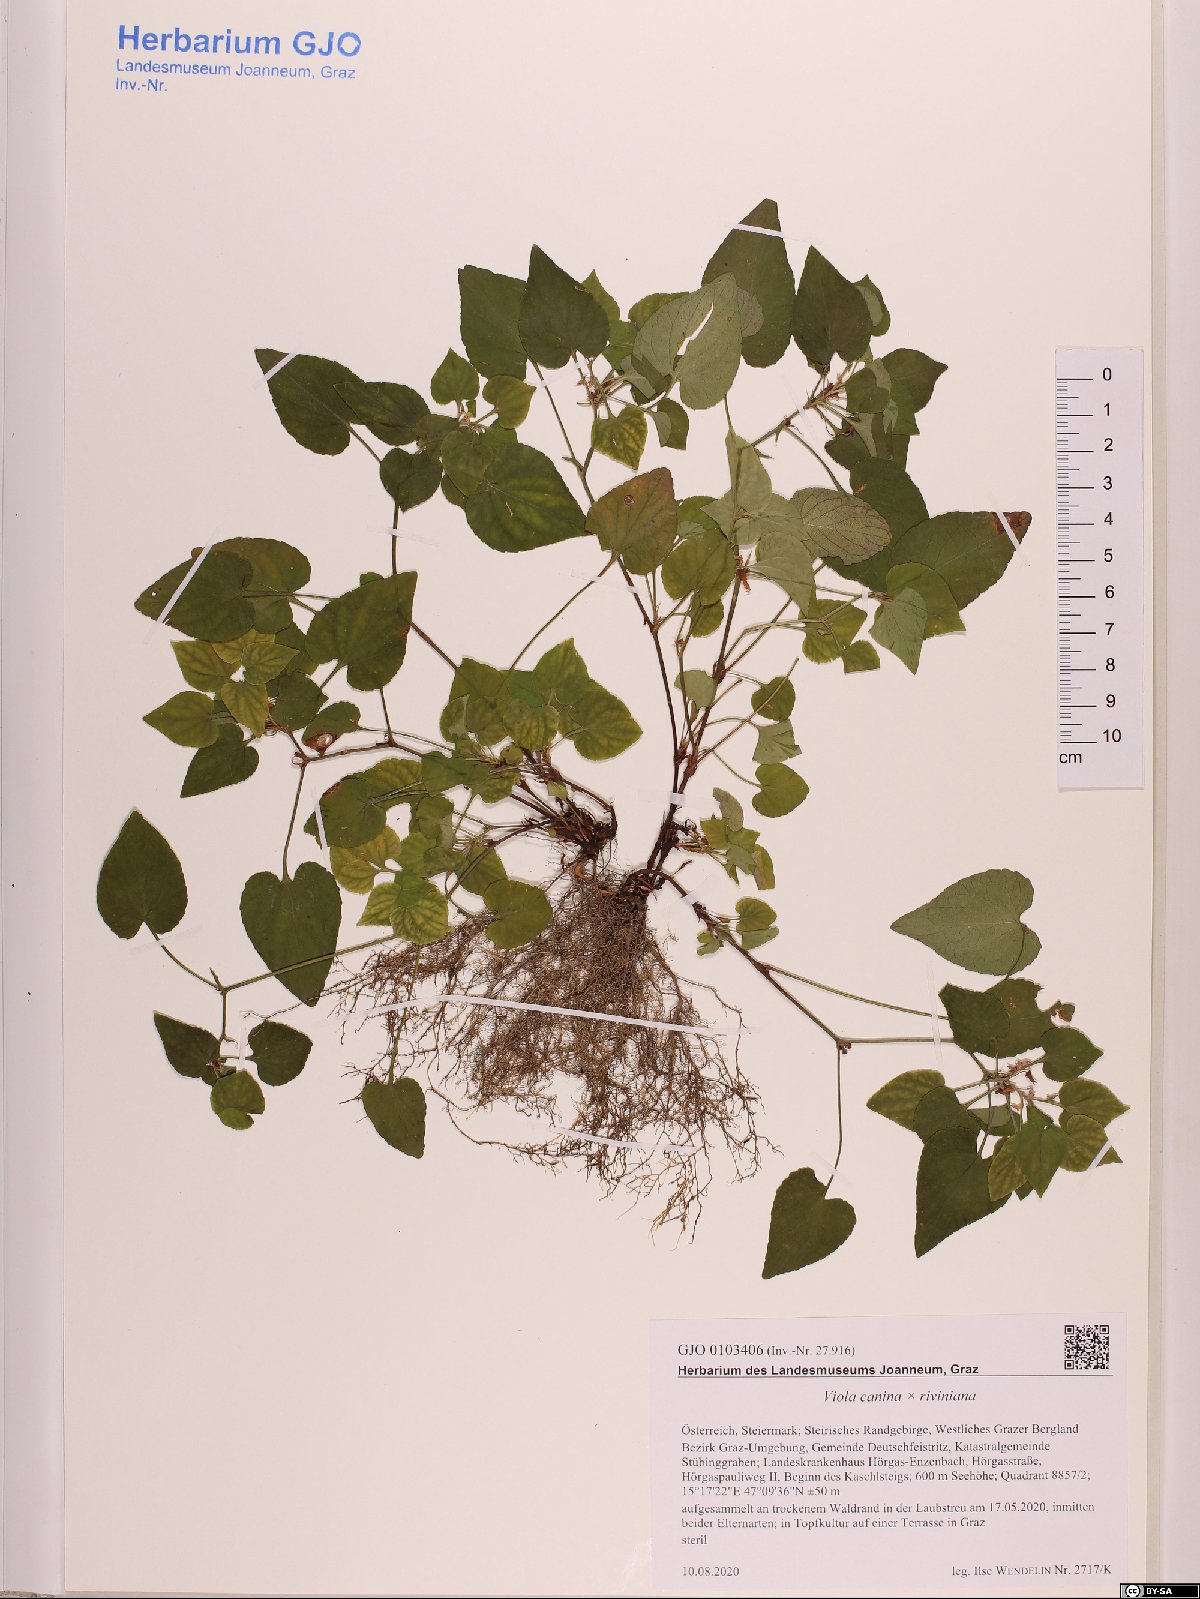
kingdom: Plantae
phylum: Tracheophyta
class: Magnoliopsida
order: Malpighiales
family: Violaceae
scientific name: Violaceae
